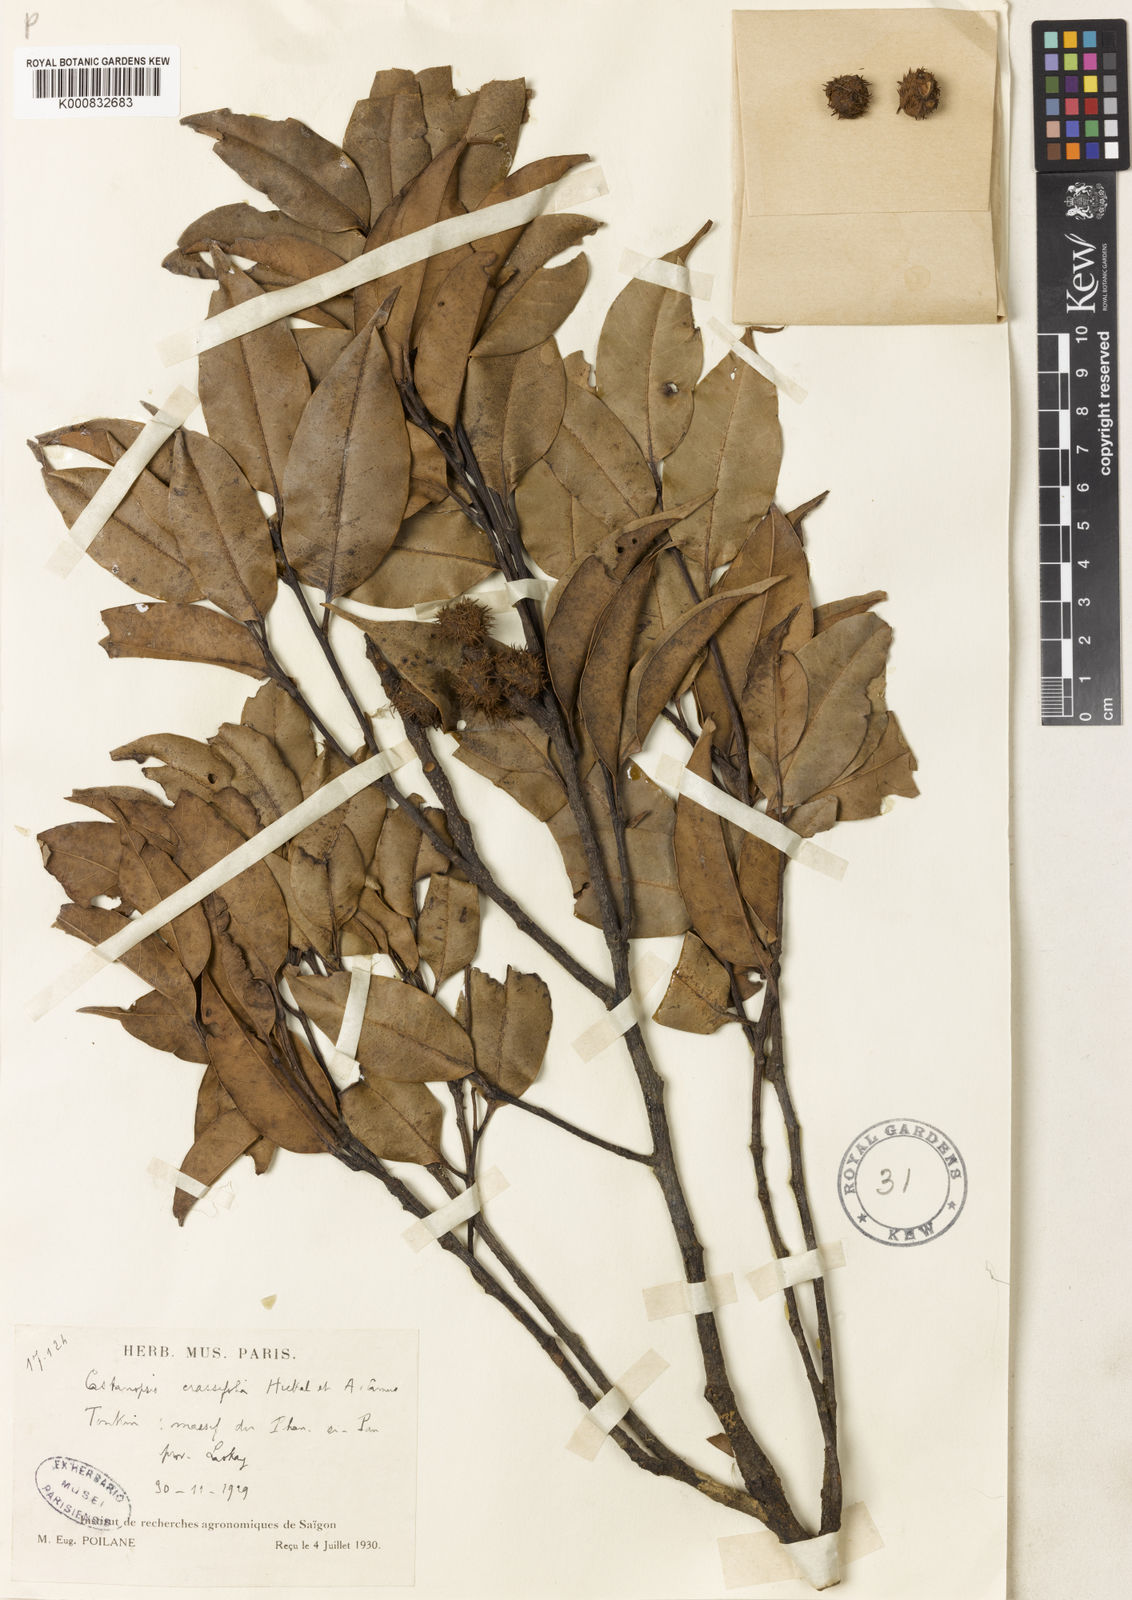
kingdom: Plantae
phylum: Tracheophyta
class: Magnoliopsida
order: Fagales
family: Fagaceae
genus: Castanopsis
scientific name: Castanopsis crassifolia
